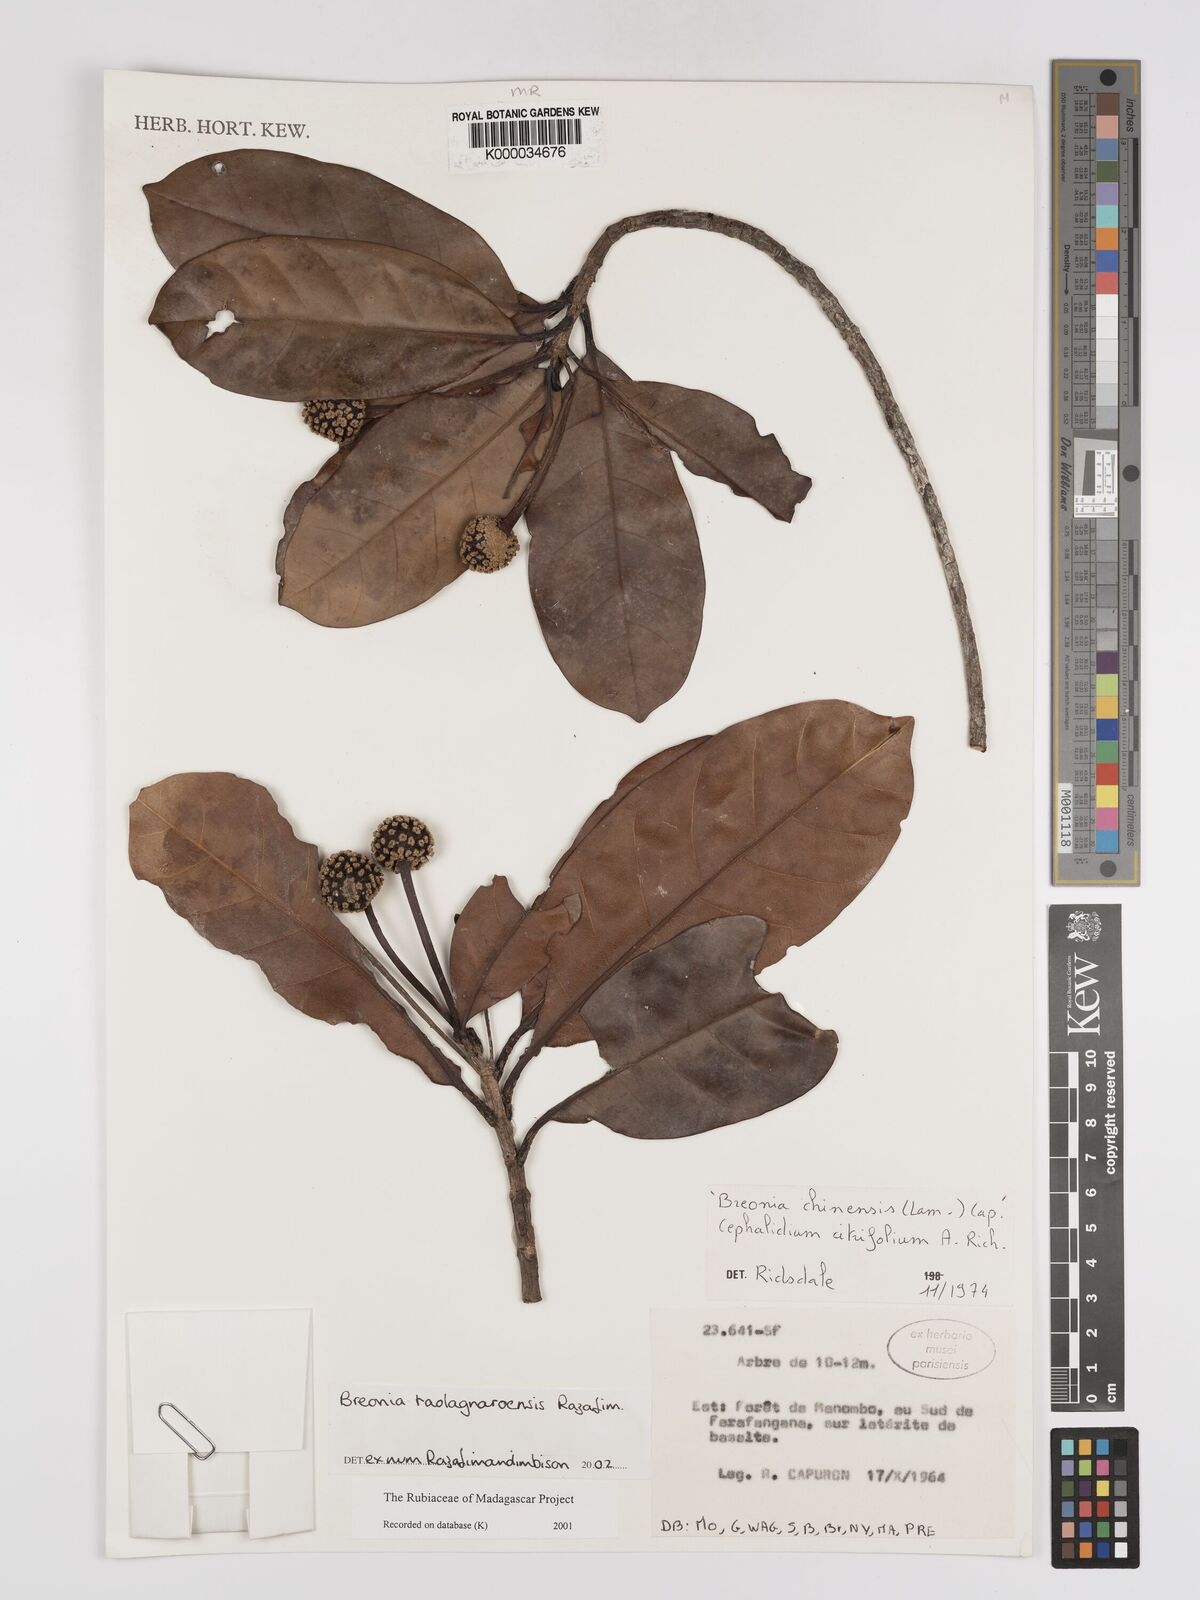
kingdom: Plantae
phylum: Tracheophyta
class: Magnoliopsida
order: Gentianales
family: Rubiaceae
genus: Breonia
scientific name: Breonia taolagnaroensis
